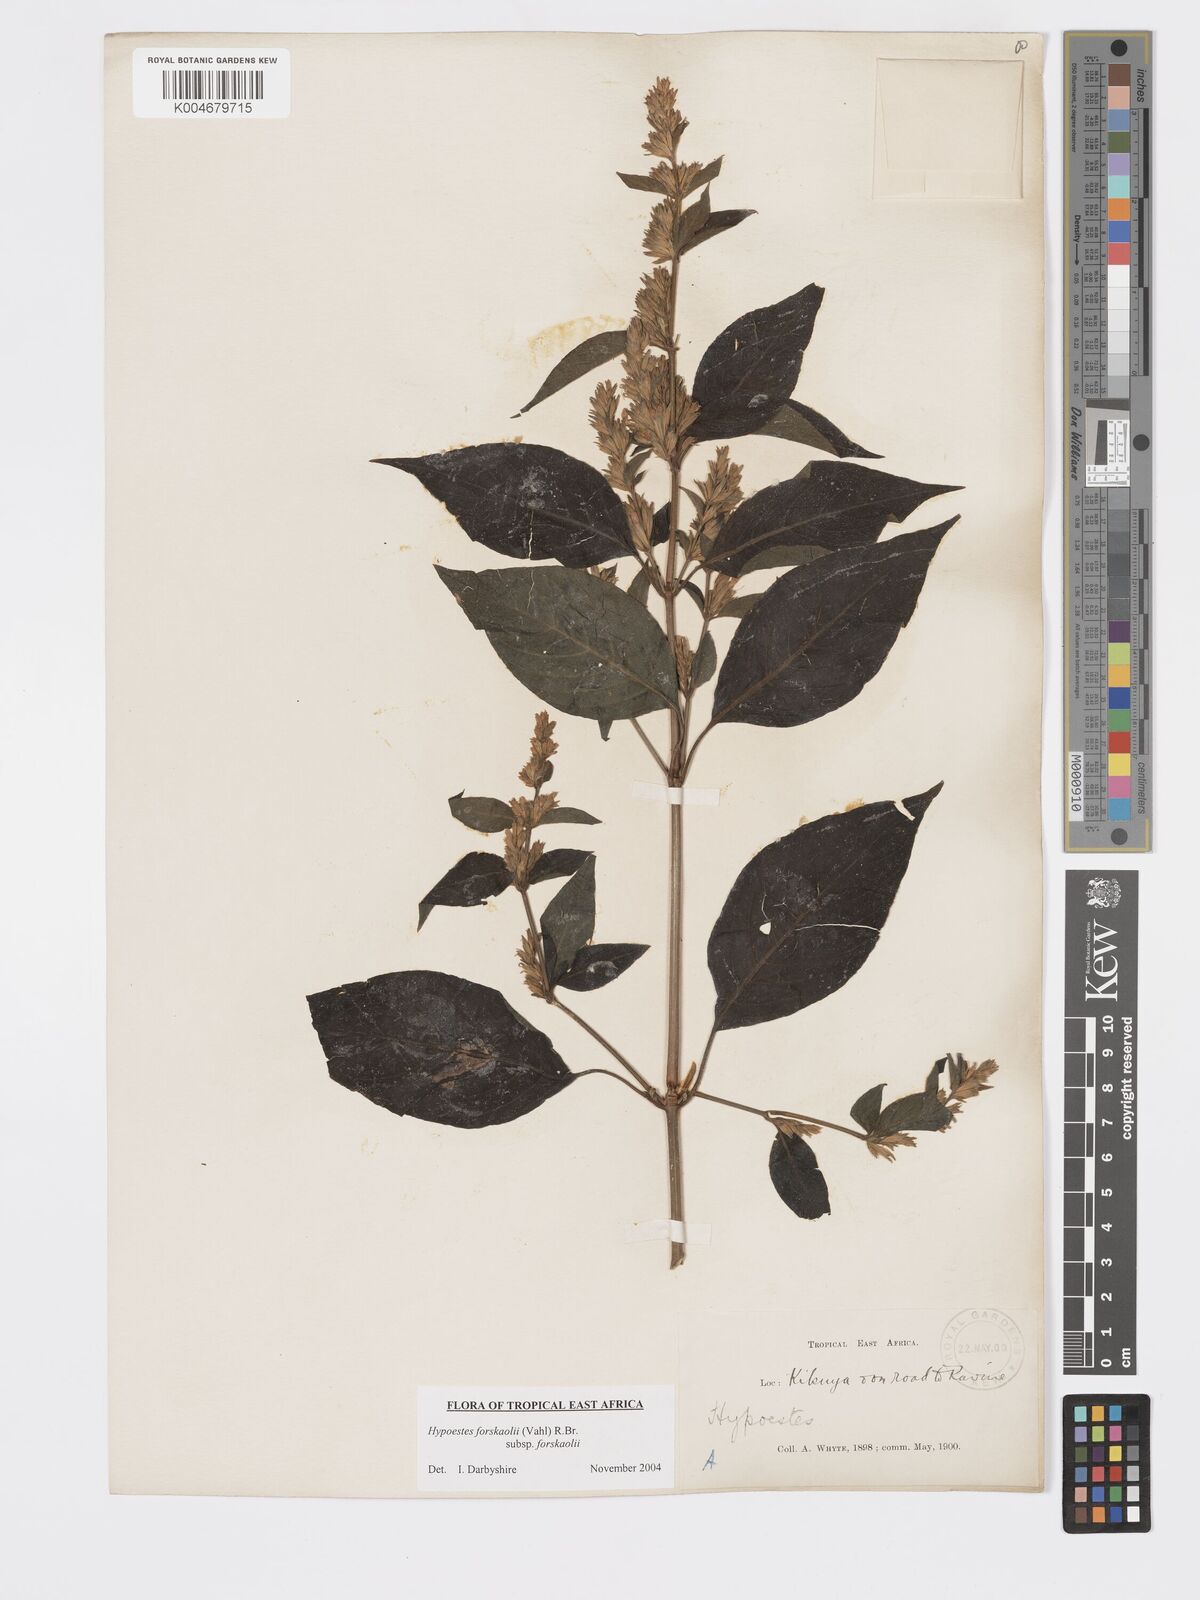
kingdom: Plantae
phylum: Tracheophyta
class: Magnoliopsida
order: Lamiales
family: Acanthaceae
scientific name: Acanthaceae
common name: Acanthaceae
